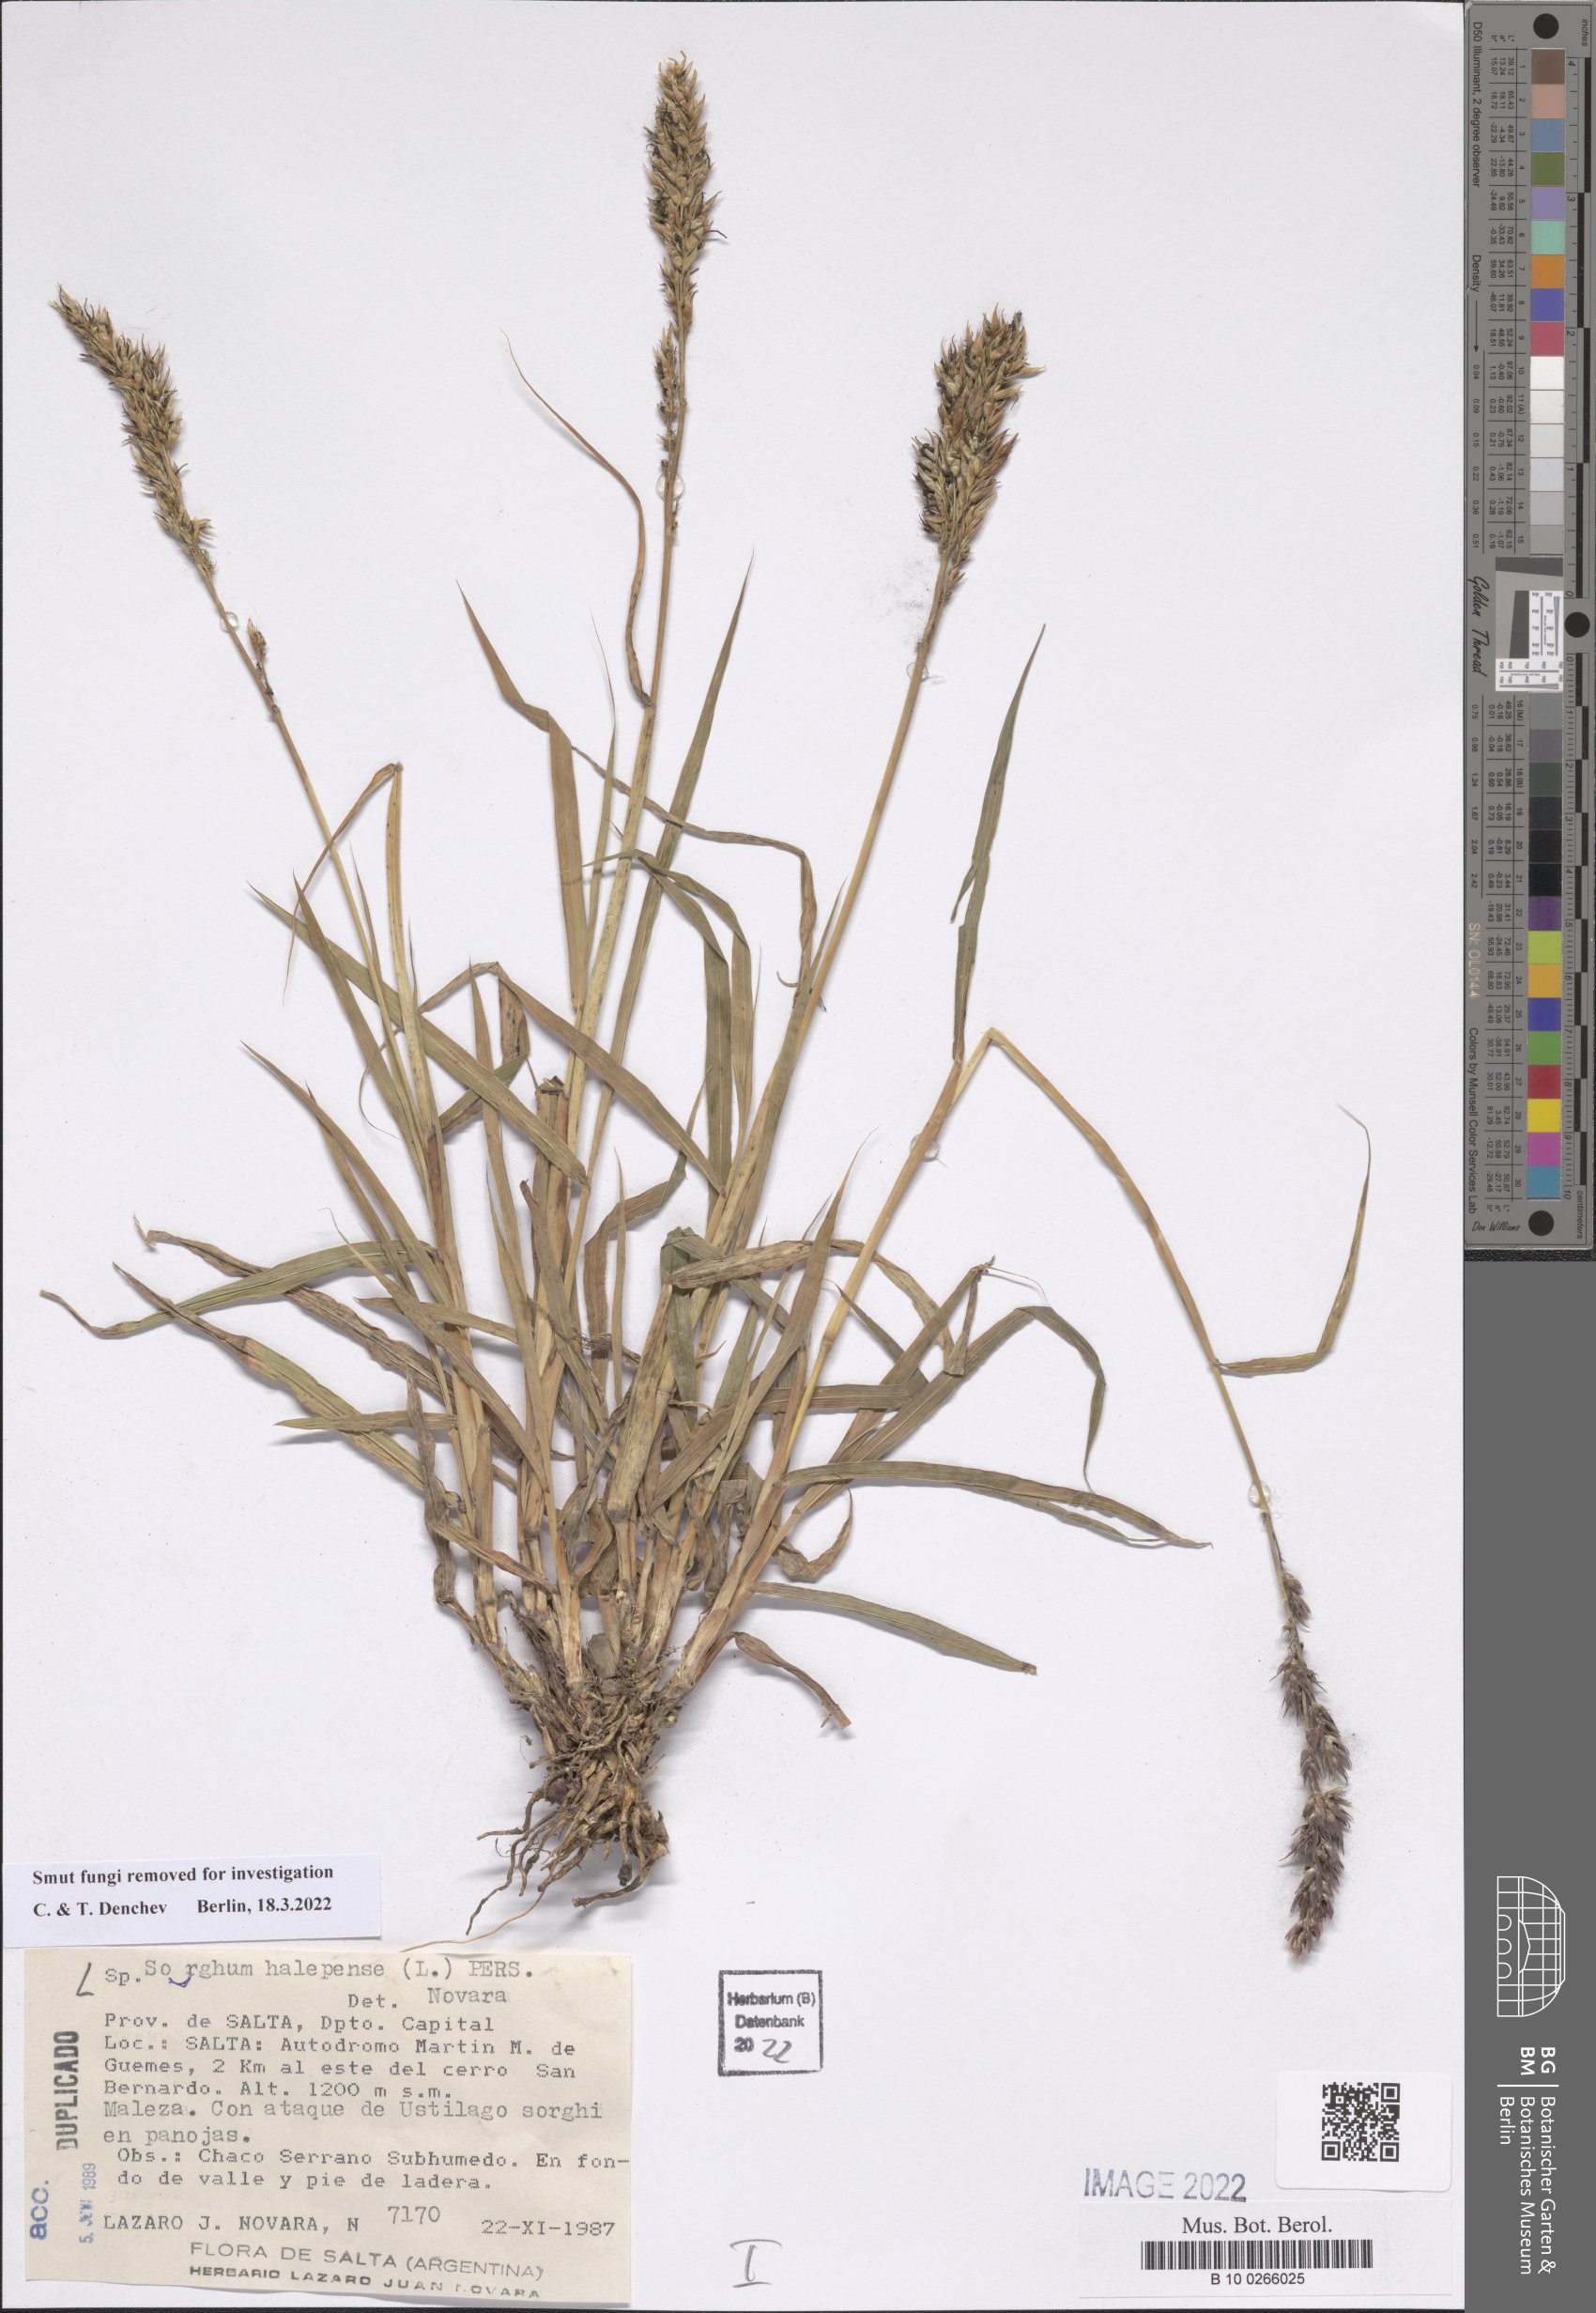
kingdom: Plantae
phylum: Tracheophyta
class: Liliopsida
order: Poales
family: Poaceae
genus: Sorghum
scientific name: Sorghum halepense
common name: Johnson-grass
